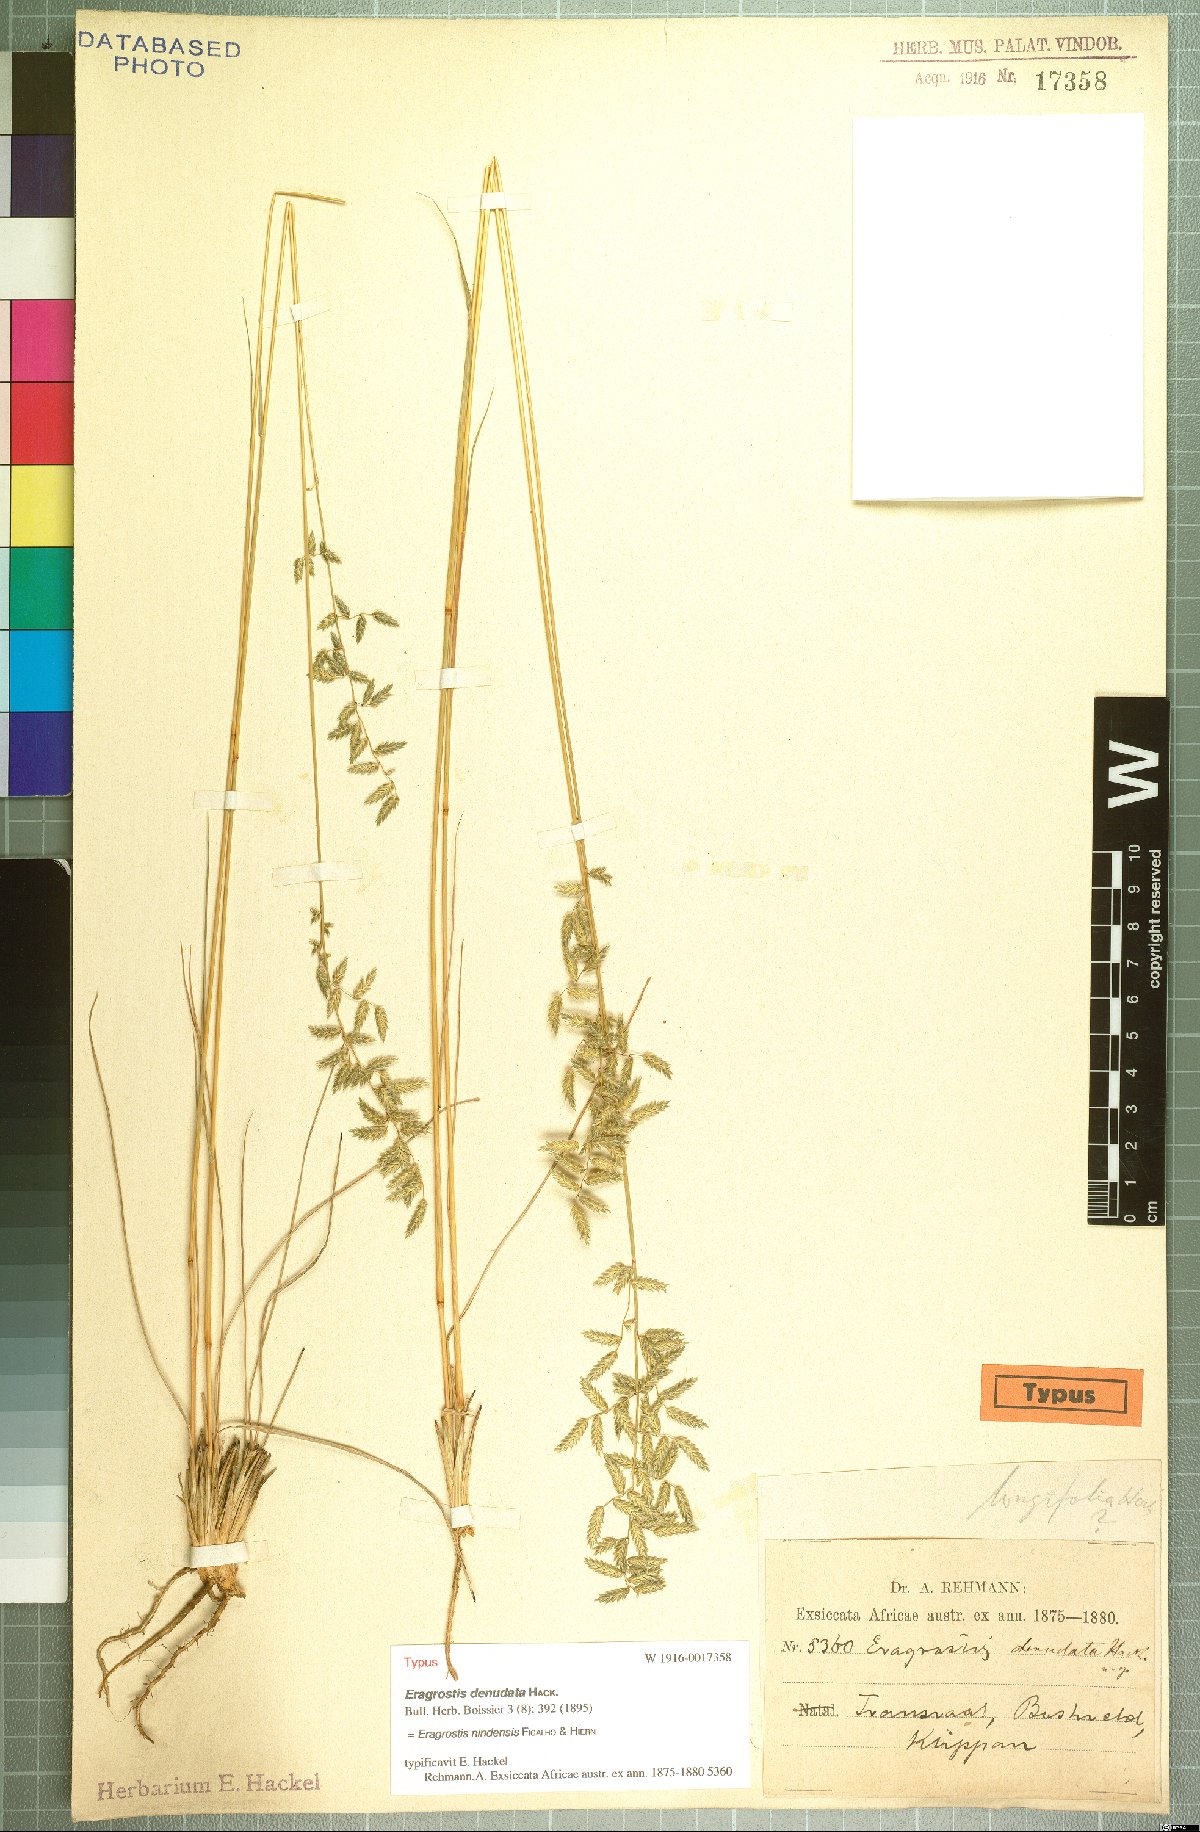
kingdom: Plantae
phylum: Tracheophyta
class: Liliopsida
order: Poales
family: Poaceae
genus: Eragrostis
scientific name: Eragrostis nindensis
